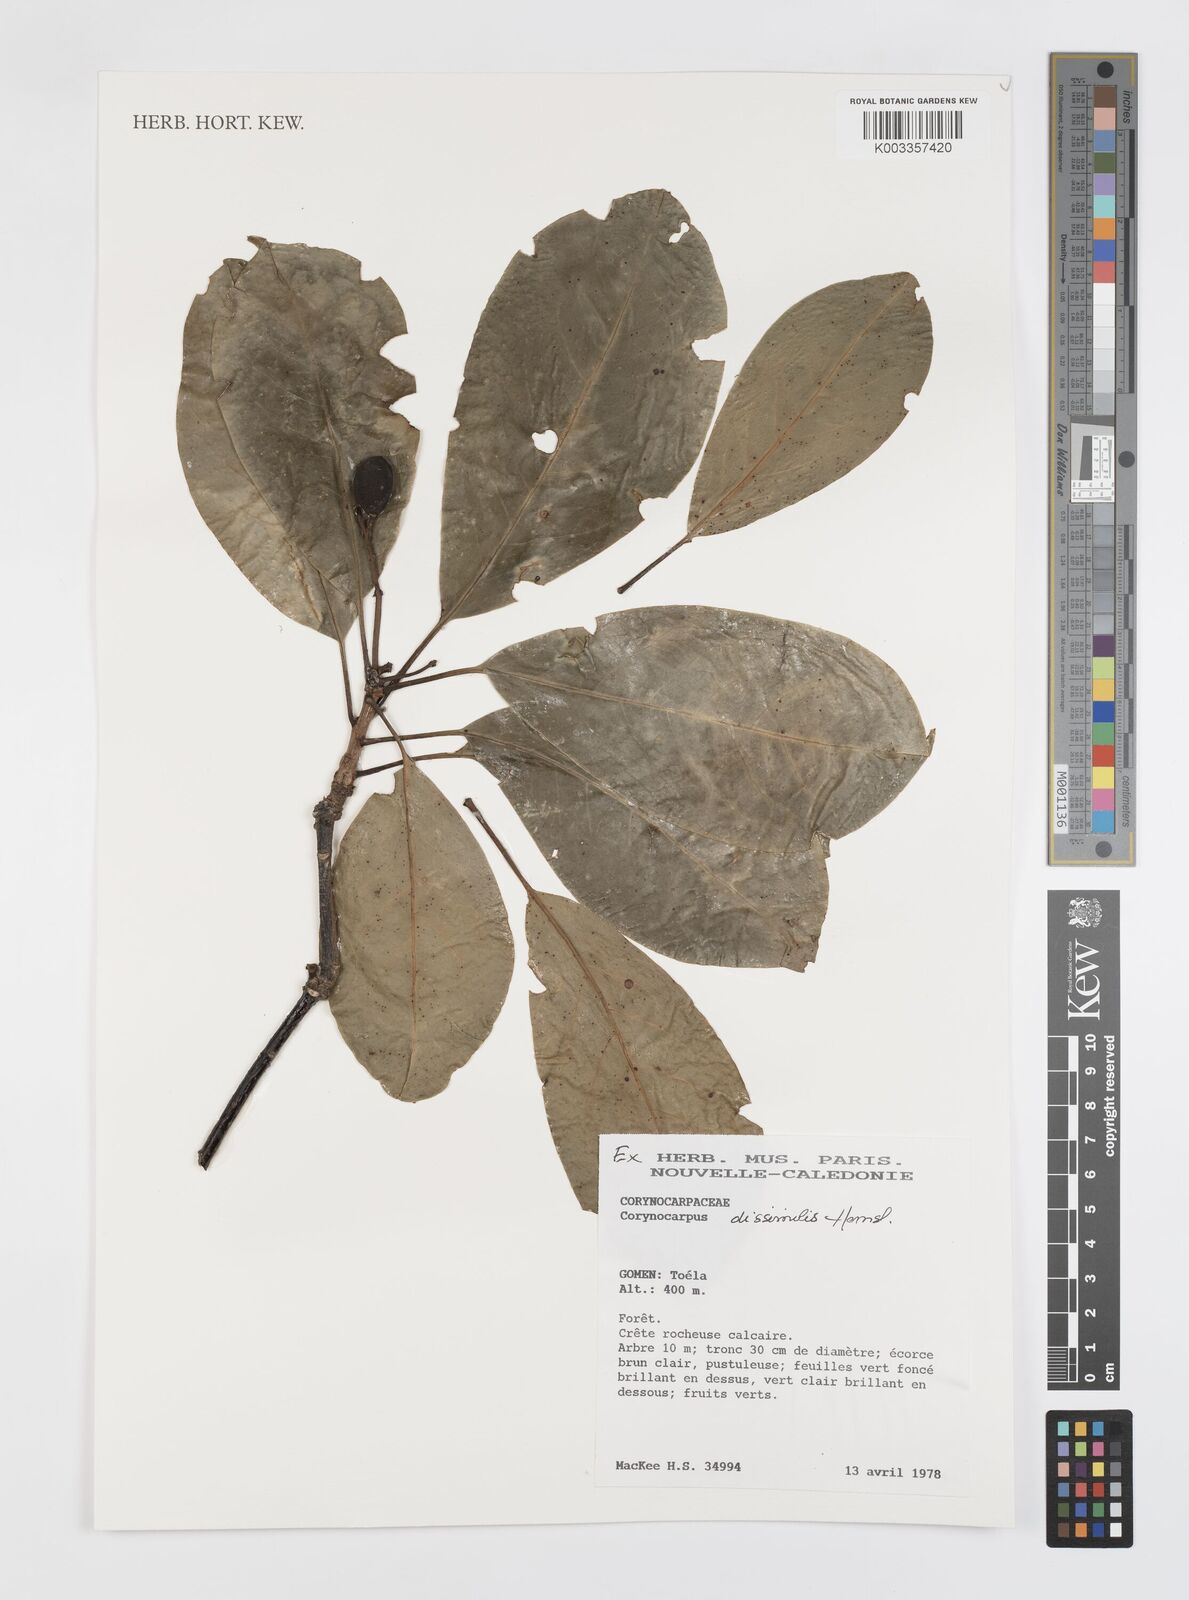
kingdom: Plantae
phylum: Tracheophyta
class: Magnoliopsida
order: Cucurbitales
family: Corynocarpaceae
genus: Corynocarpus
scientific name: Corynocarpus dissimilis
